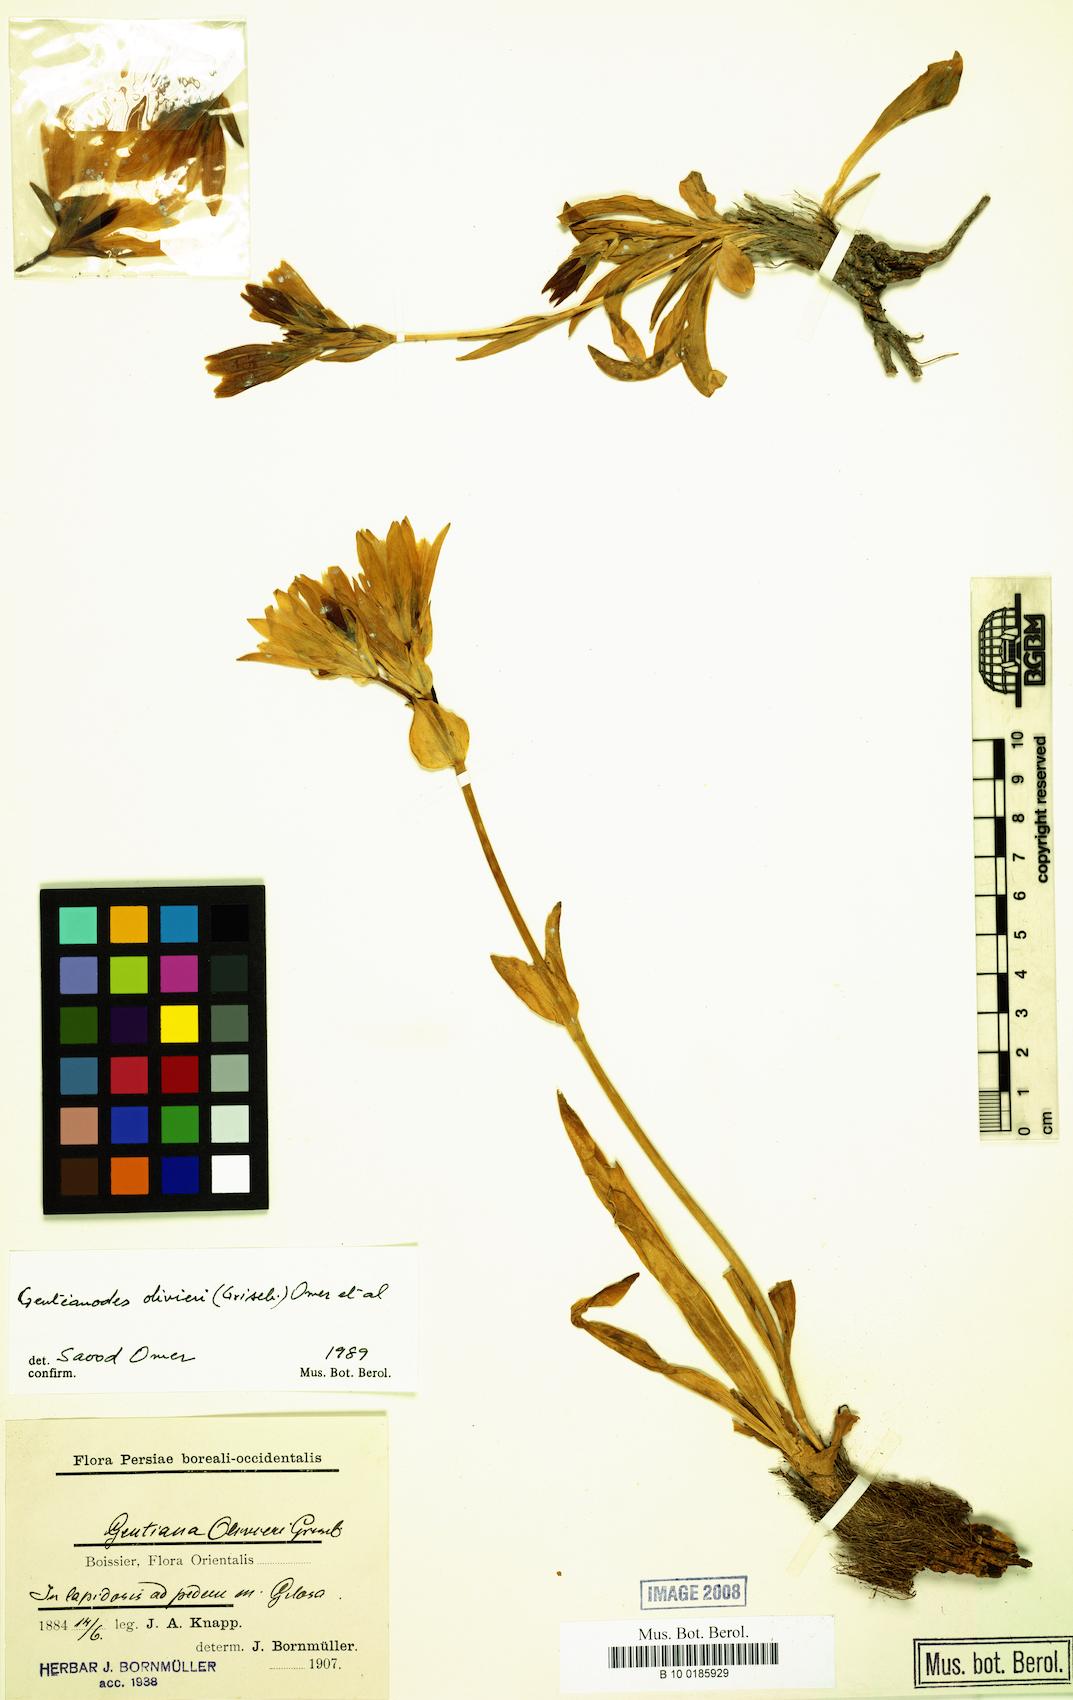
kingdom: Plantae
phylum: Tracheophyta
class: Magnoliopsida
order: Gentianales
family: Gentianaceae
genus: Gentiana
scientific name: Gentiana olivieri
